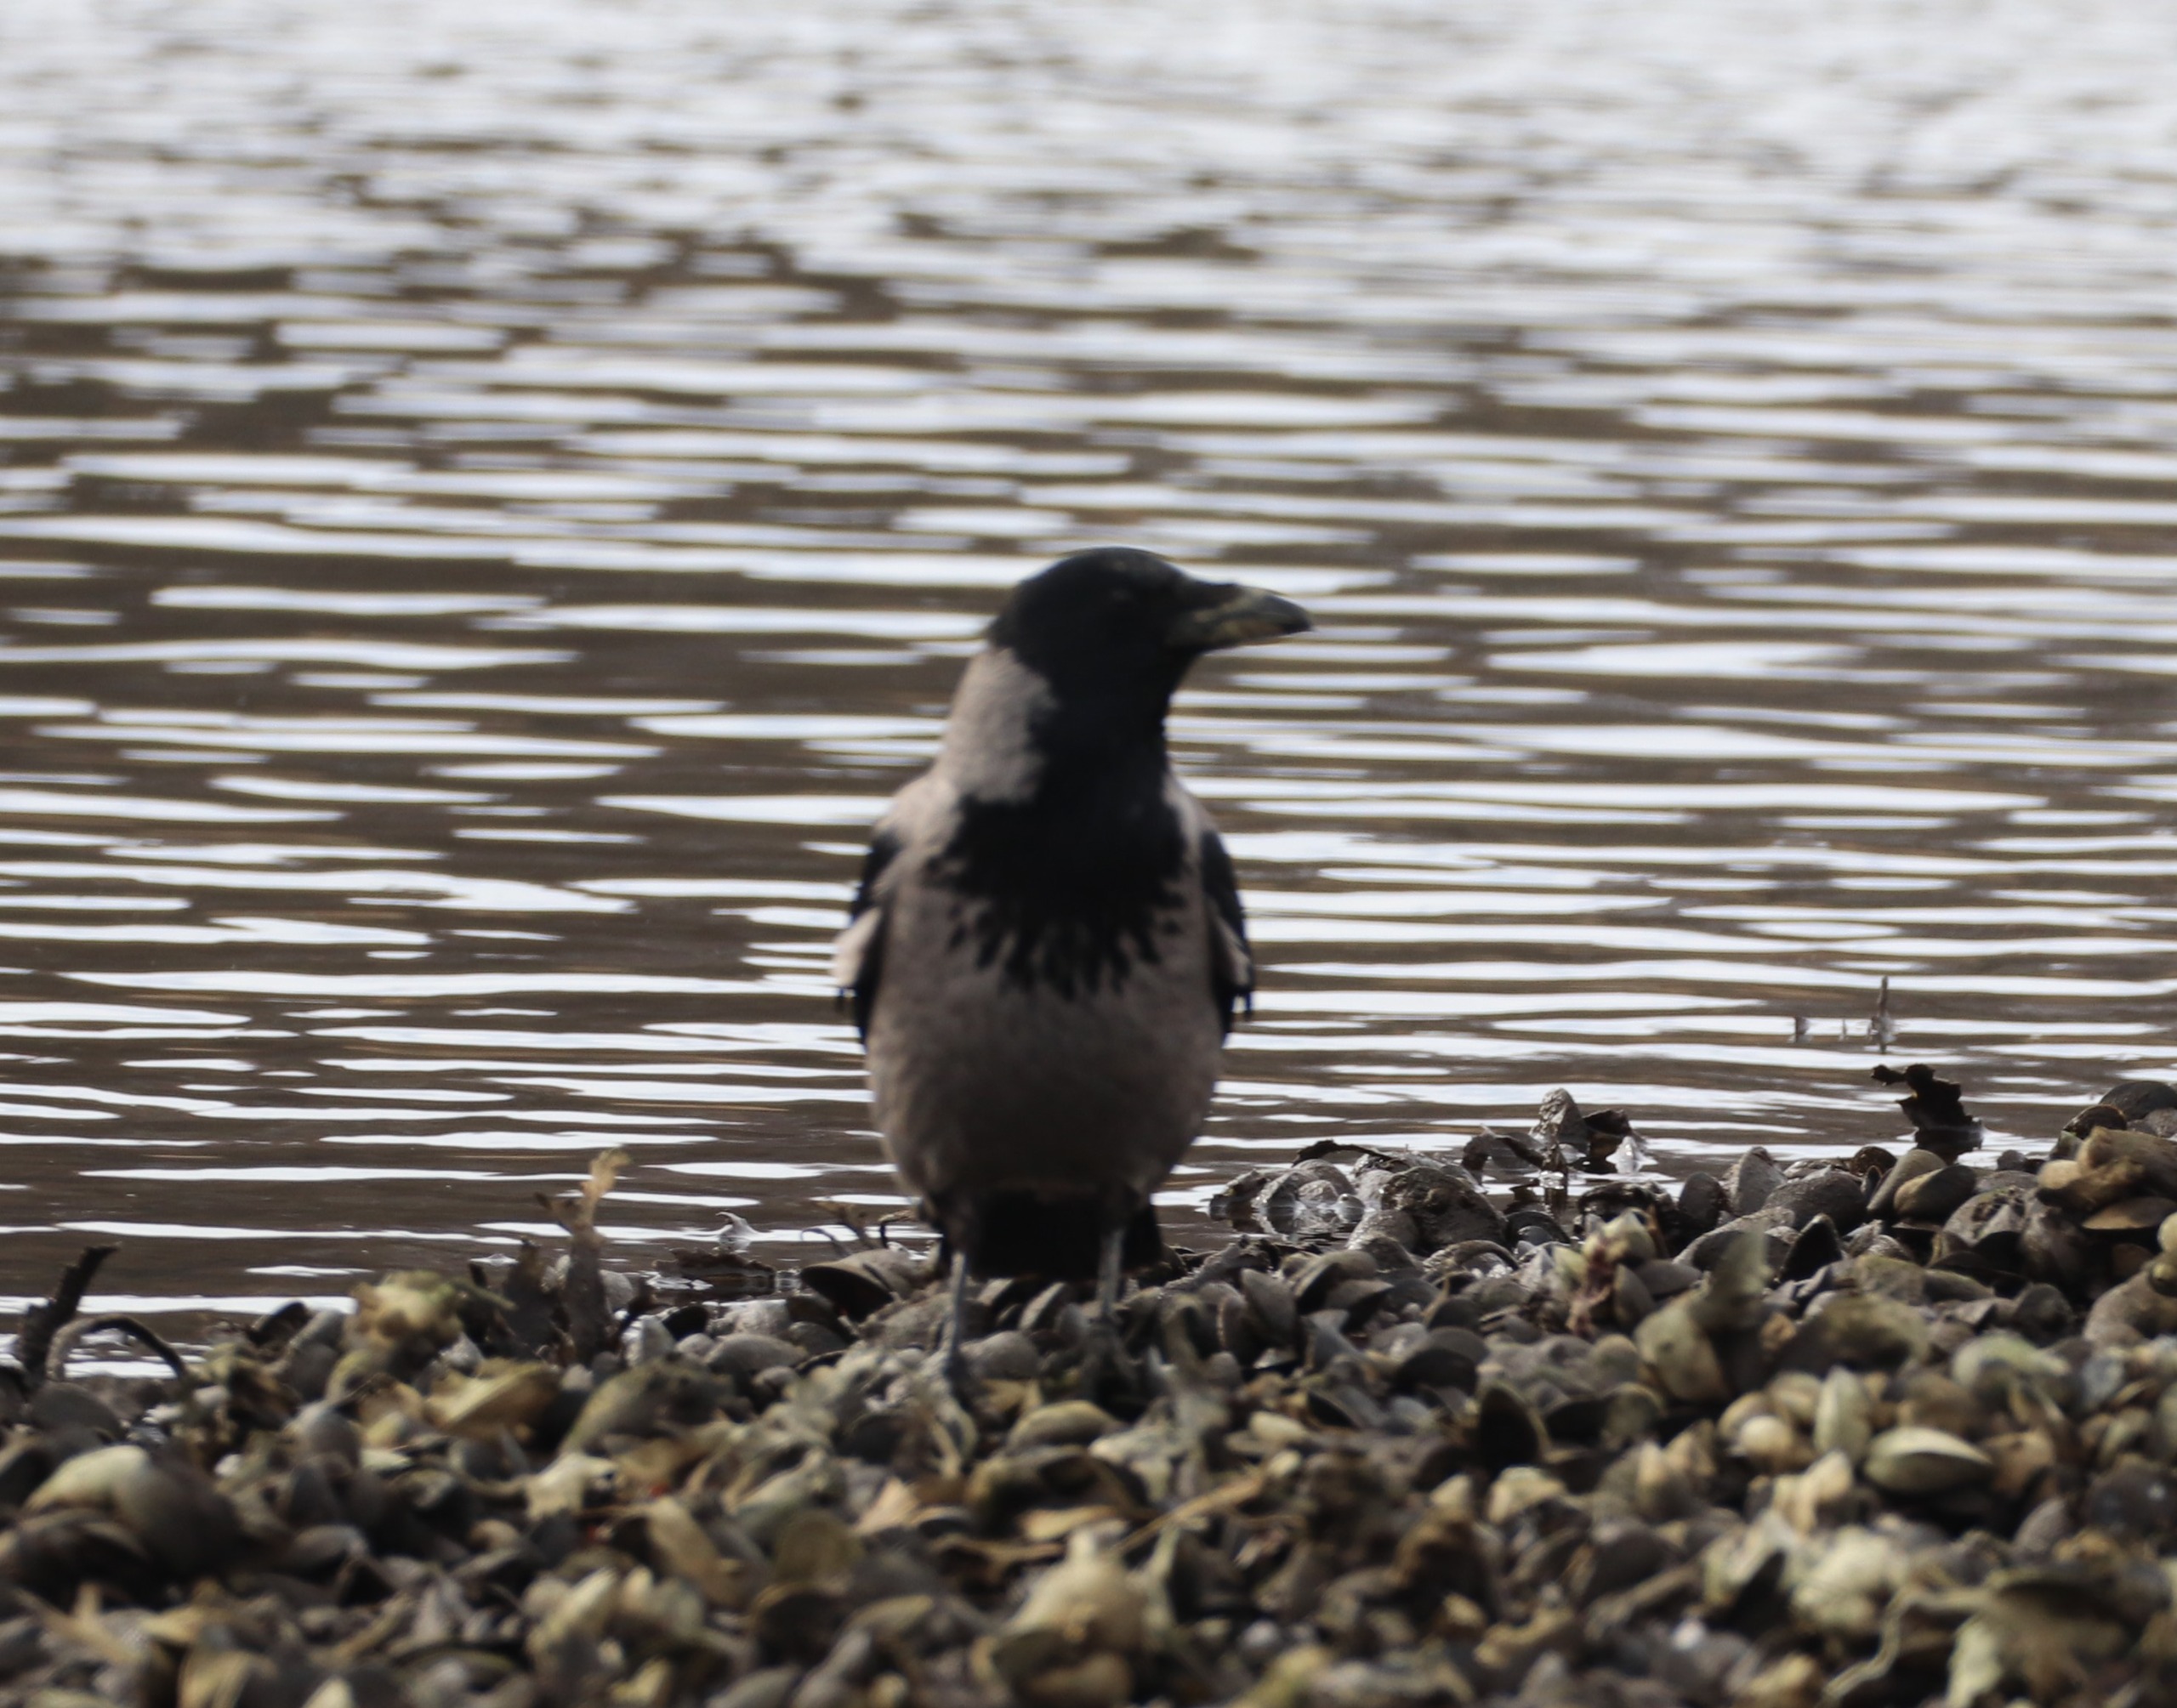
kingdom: Animalia
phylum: Chordata
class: Aves
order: Passeriformes
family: Corvidae
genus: Corvus
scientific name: Corvus cornix
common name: Gråkrage
